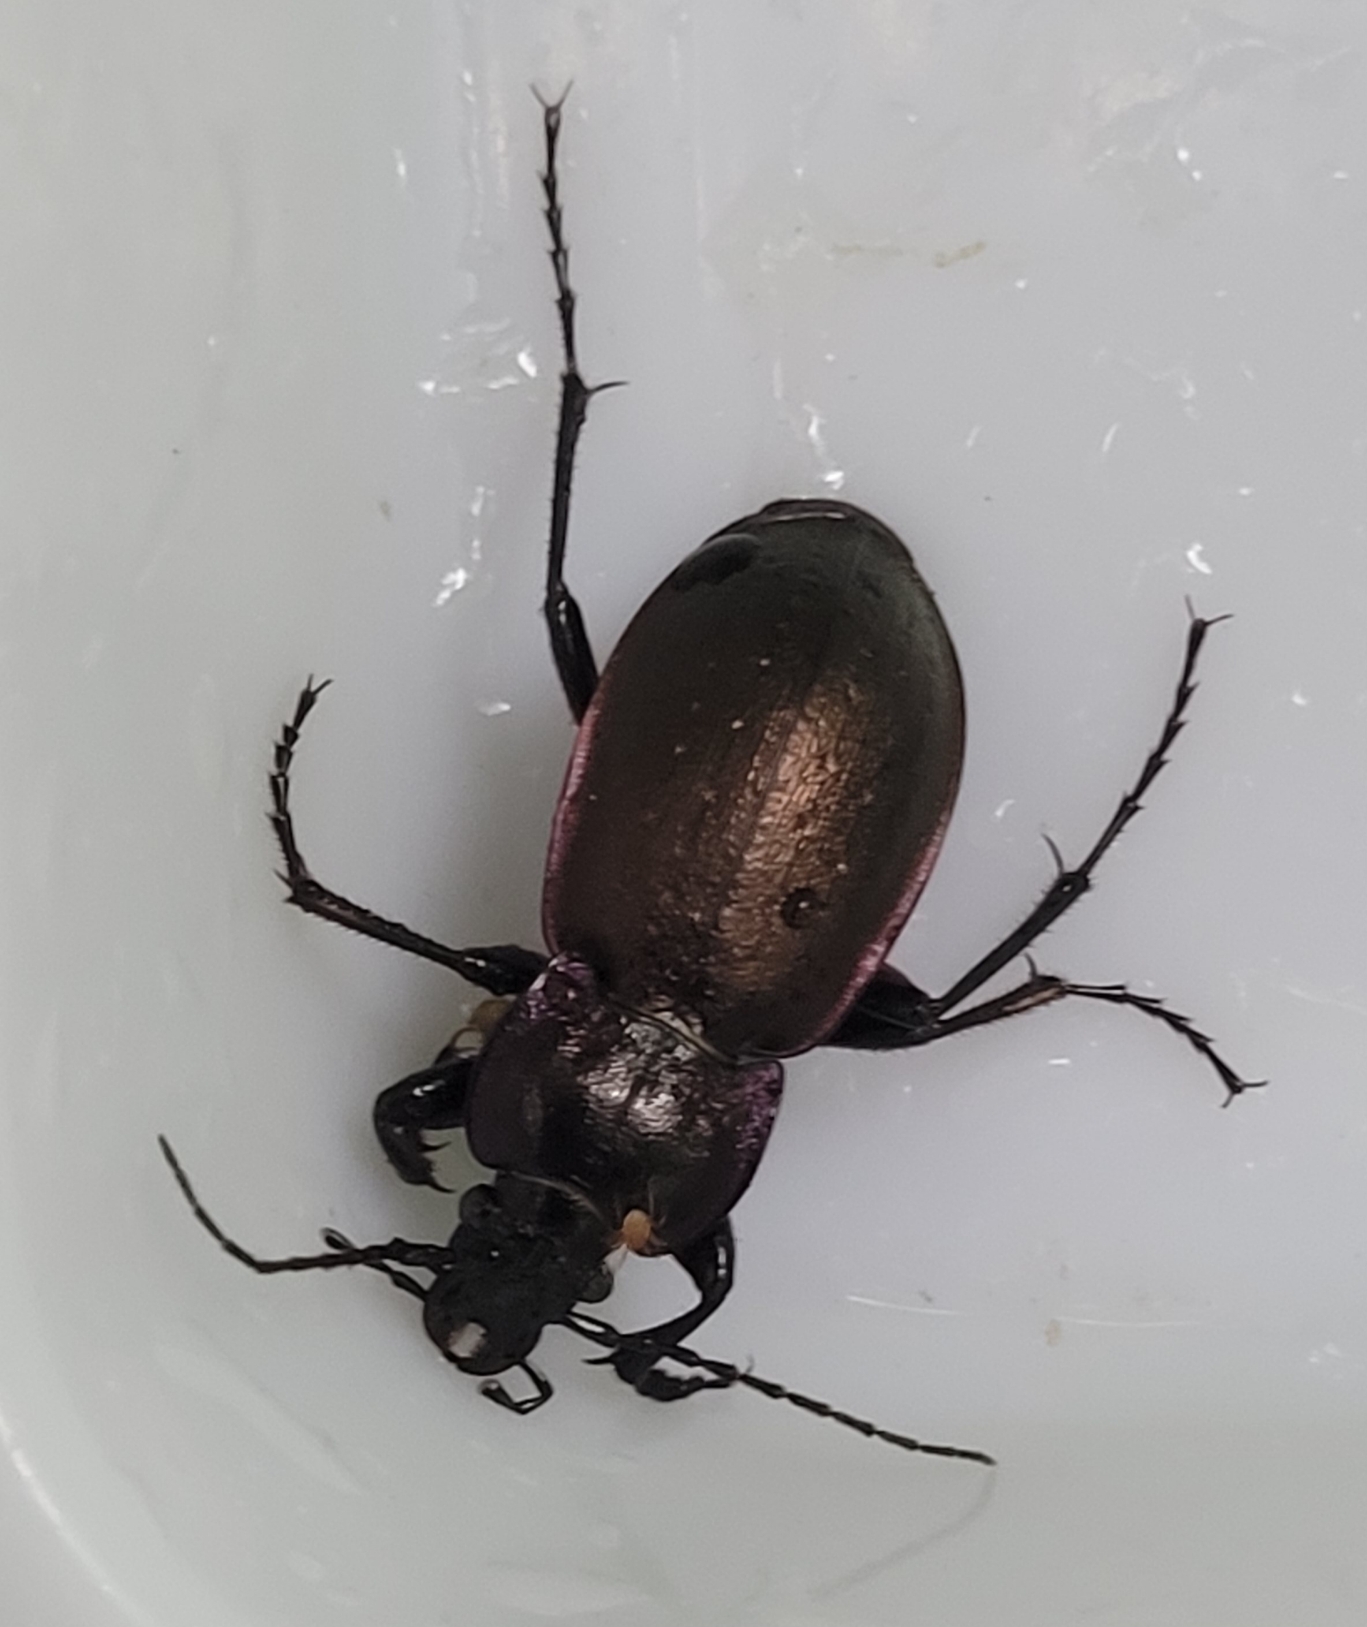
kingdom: Animalia
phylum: Arthropoda
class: Insecta
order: Coleoptera
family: Carabidae
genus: Carabus
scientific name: Carabus nemoralis
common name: Kratløber
